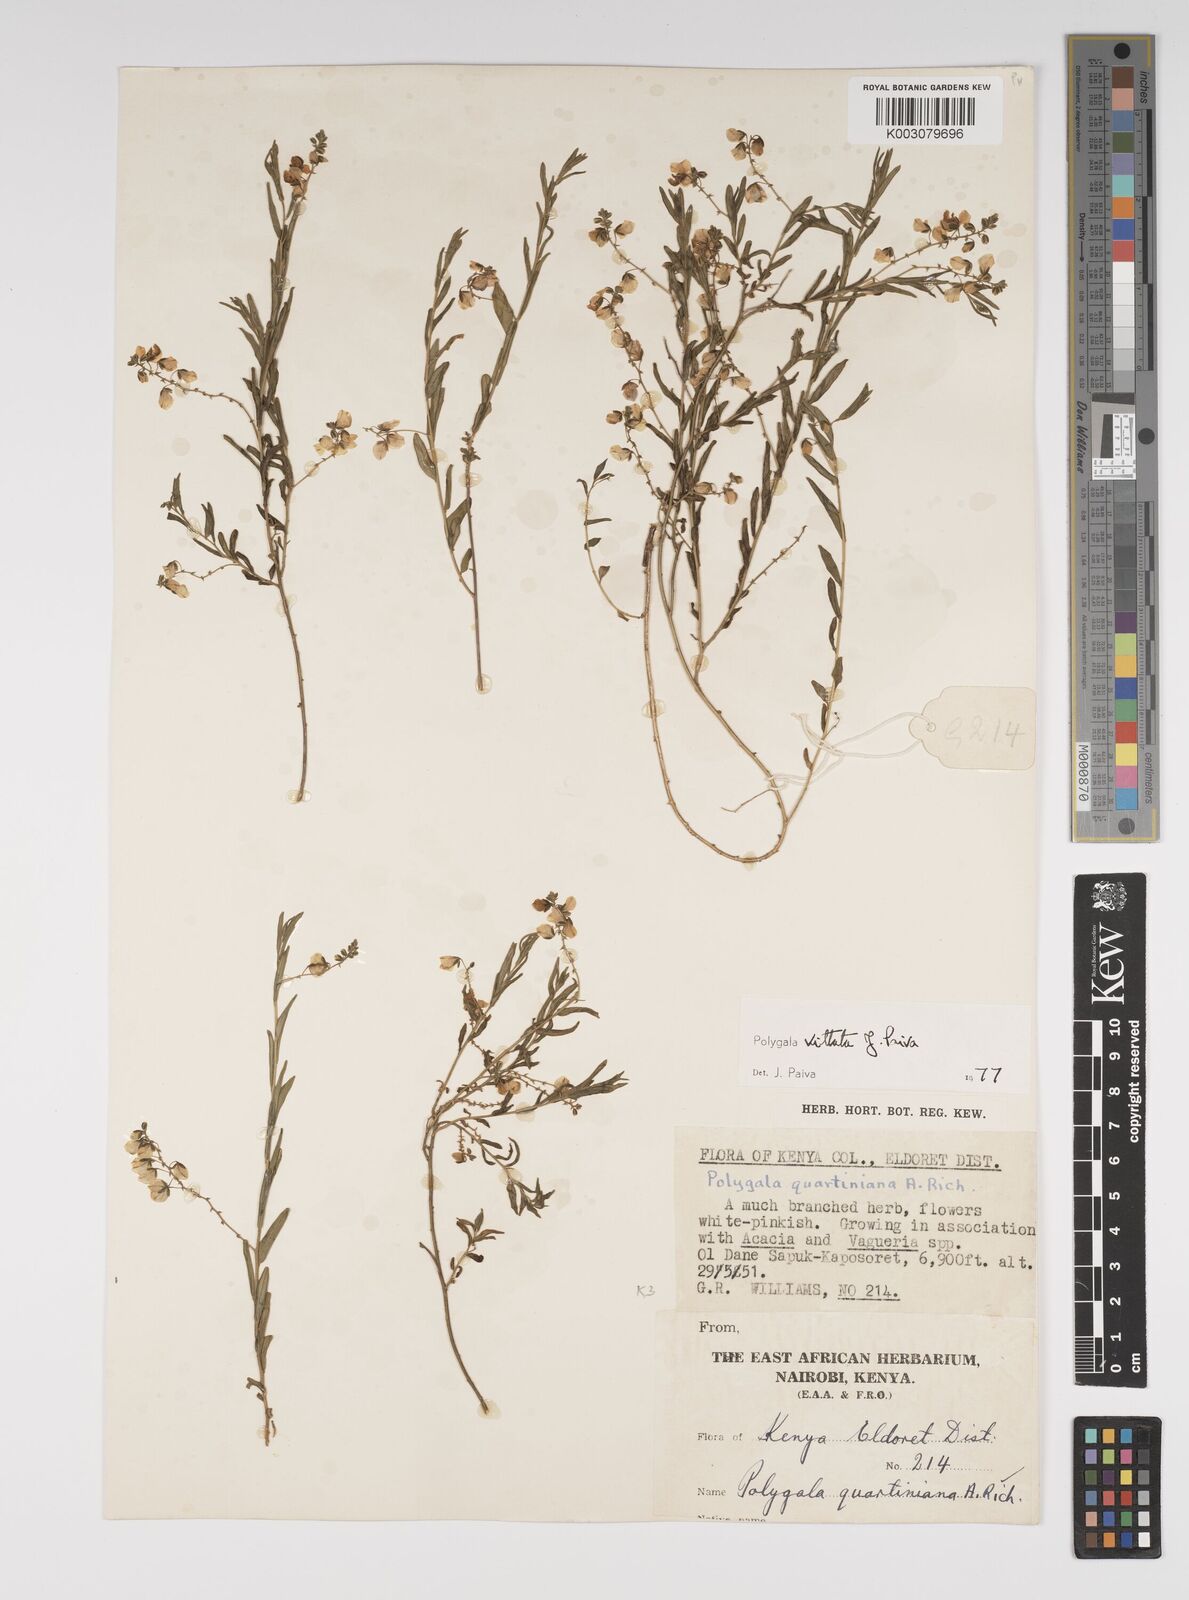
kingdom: Plantae
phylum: Tracheophyta
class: Magnoliopsida
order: Fabales
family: Polygalaceae
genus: Polygala
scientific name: Polygala vittata
